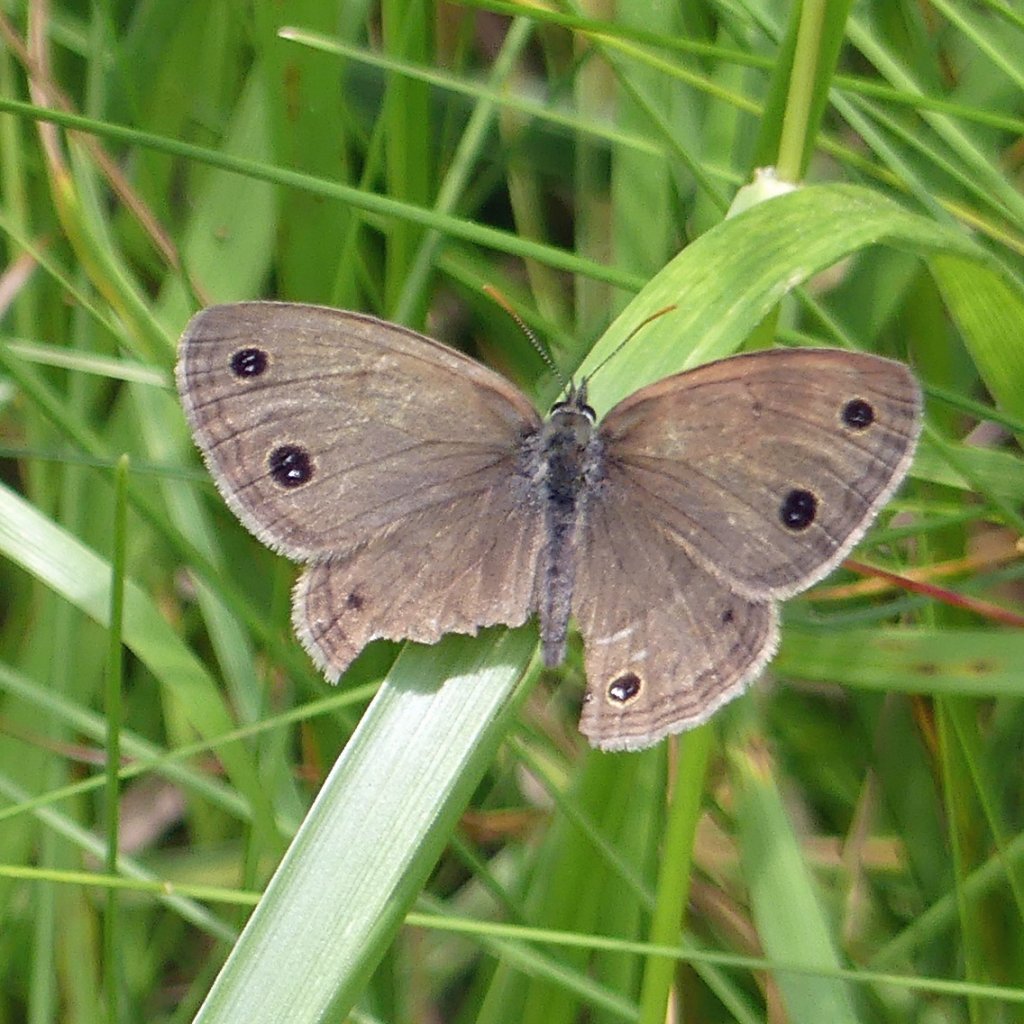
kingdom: Animalia
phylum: Arthropoda
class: Insecta
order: Lepidoptera
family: Nymphalidae
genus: Euptychia
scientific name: Euptychia cymela
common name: Little Wood Satyr
